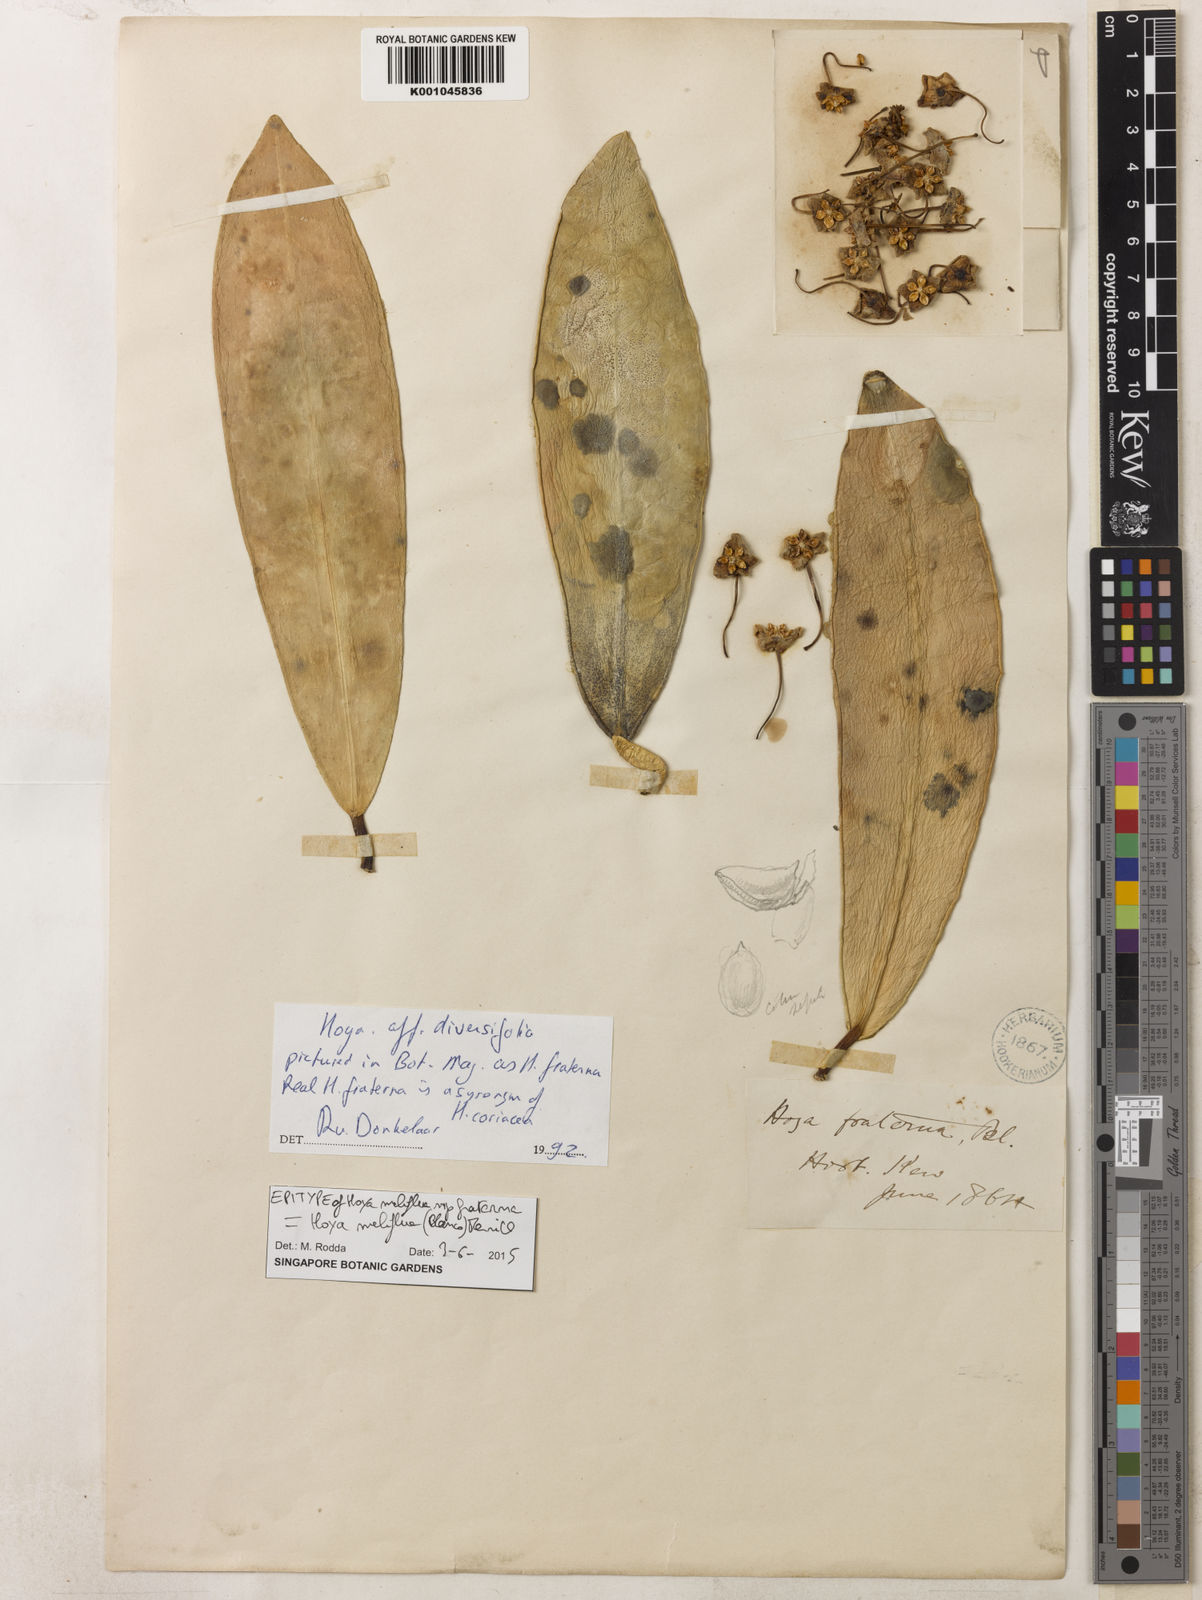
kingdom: Plantae
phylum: Tracheophyta
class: Magnoliopsida
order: Gentianales
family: Apocynaceae
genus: Hoya
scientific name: Hoya meliflua
